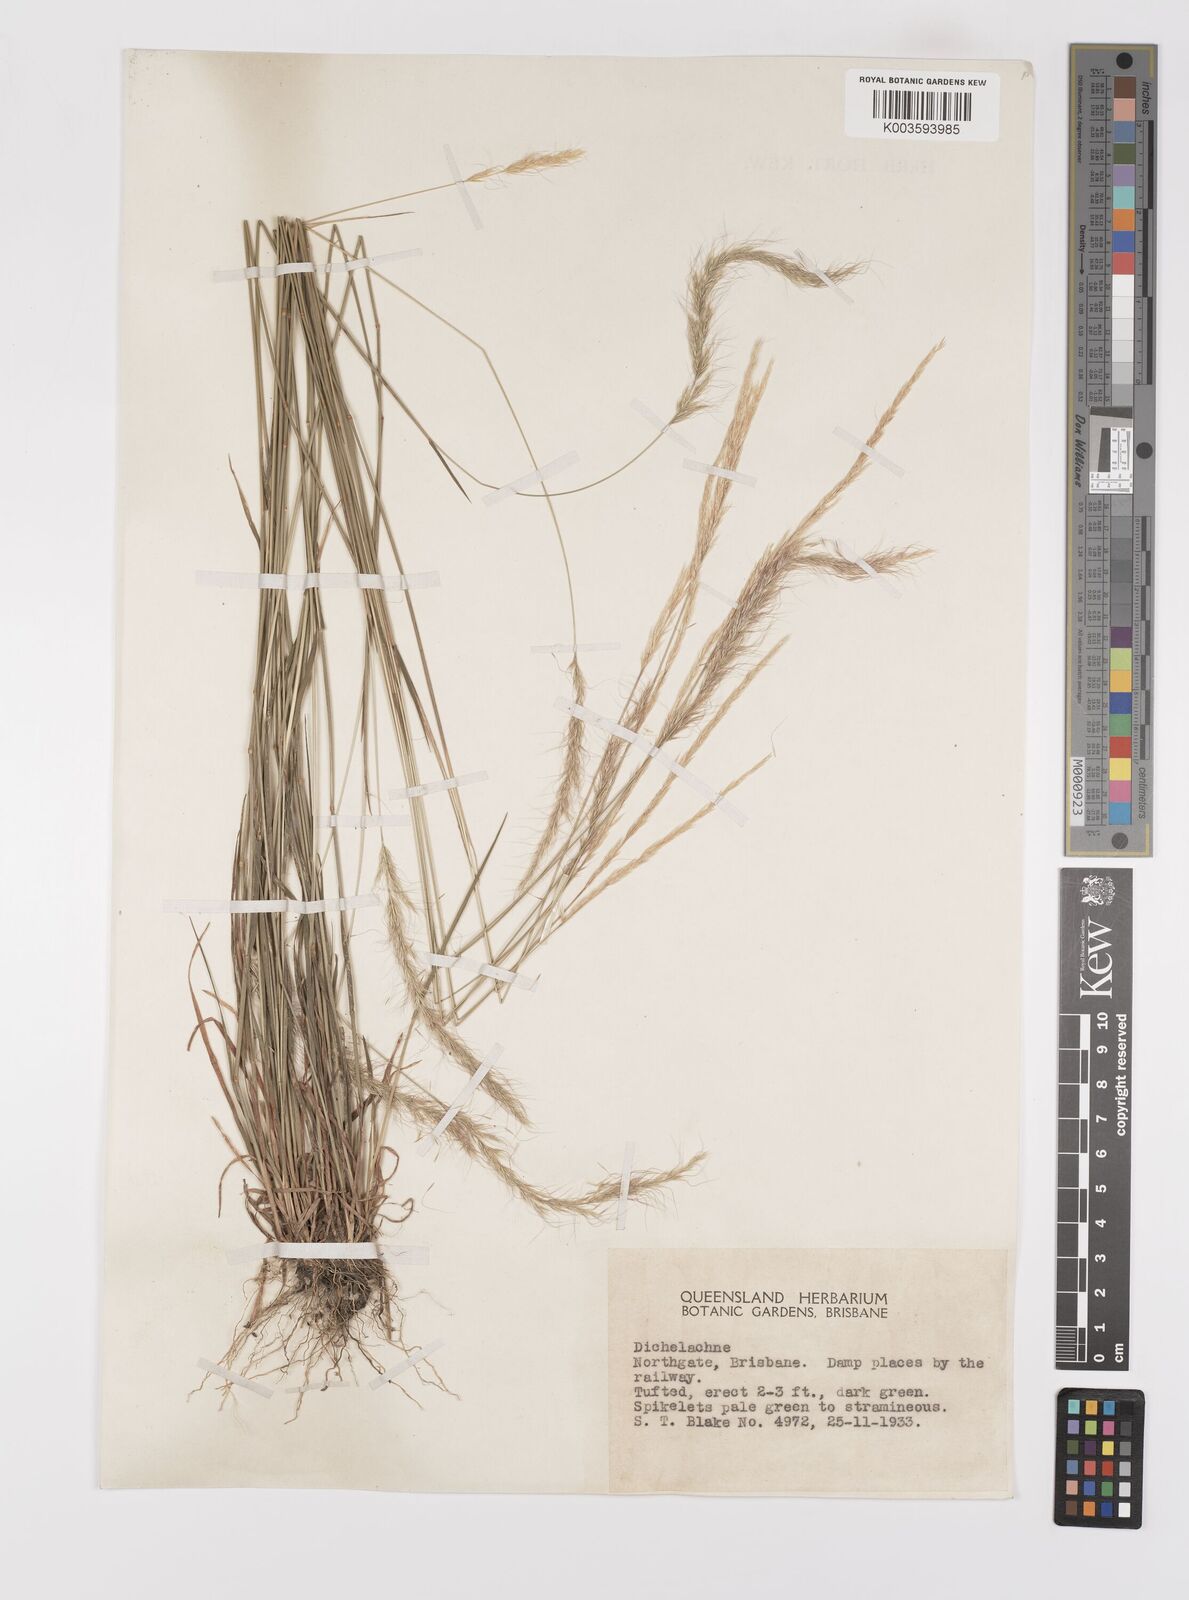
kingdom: Plantae
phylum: Tracheophyta
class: Liliopsida
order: Poales
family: Poaceae
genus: Dichelachne
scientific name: Dichelachne micrantha
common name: Plumegrass
